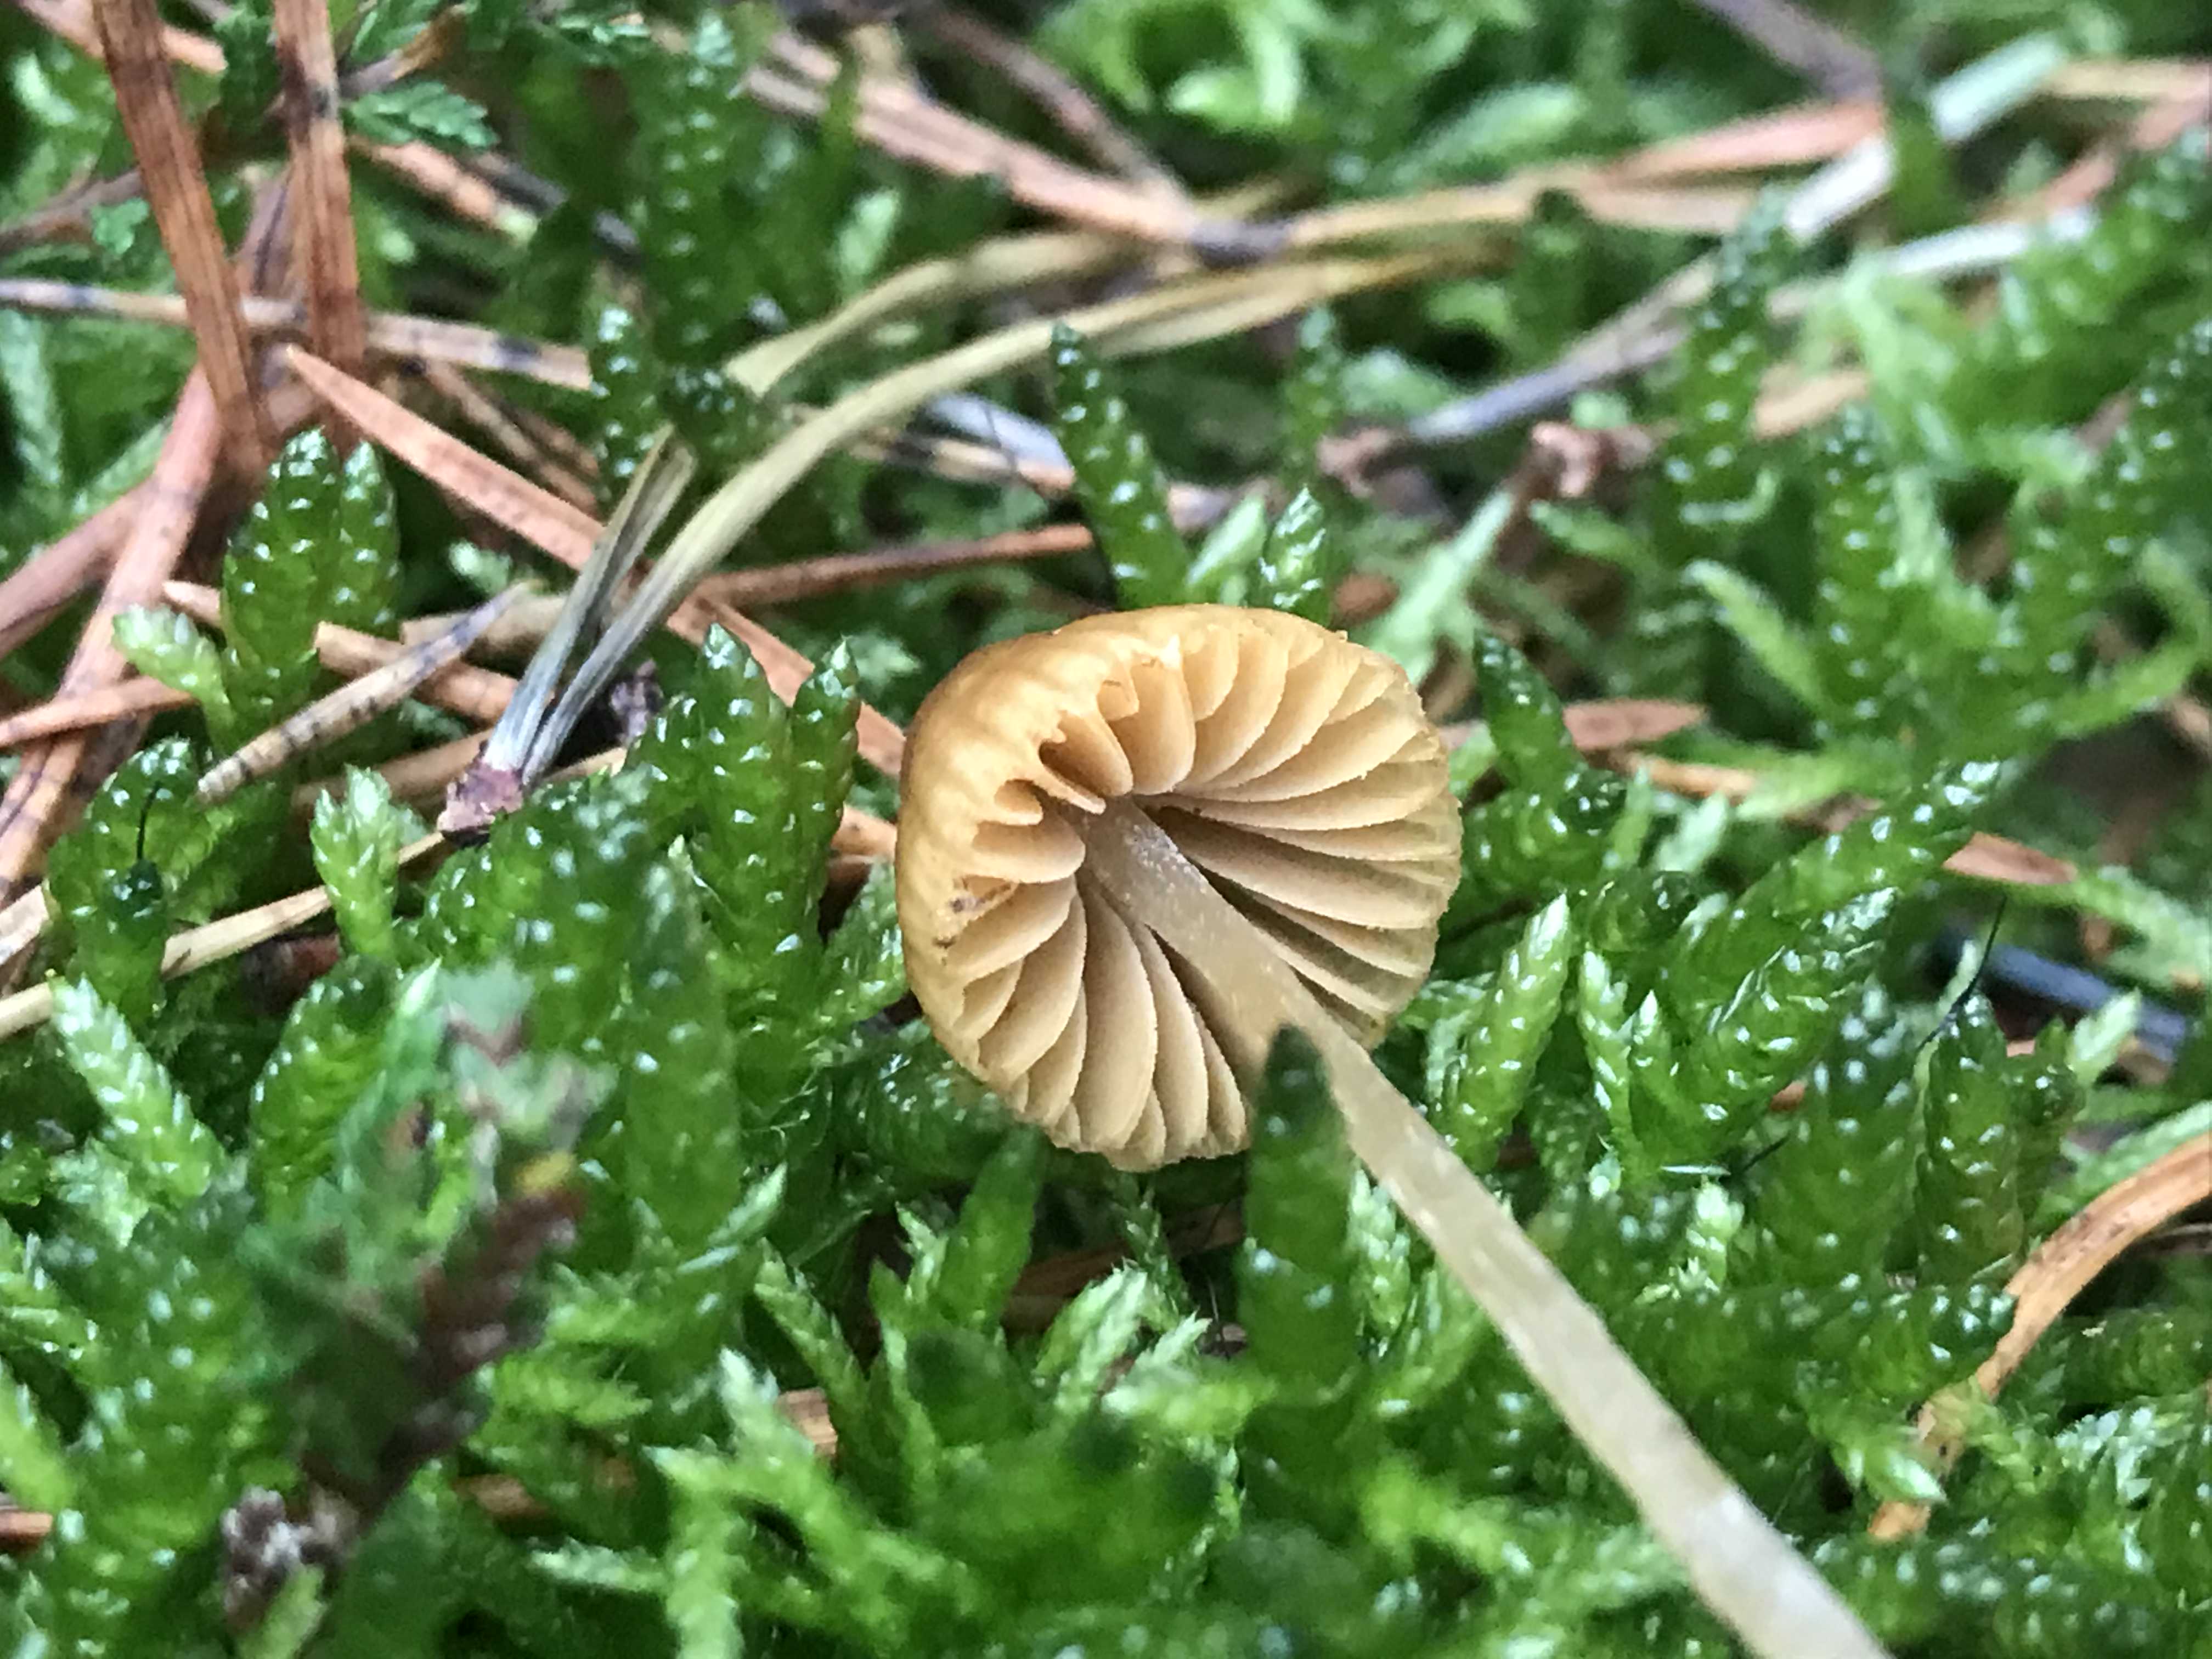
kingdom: Fungi
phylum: Basidiomycota
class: Agaricomycetes
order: Agaricales
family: Hymenogastraceae
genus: Galerina
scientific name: Galerina
